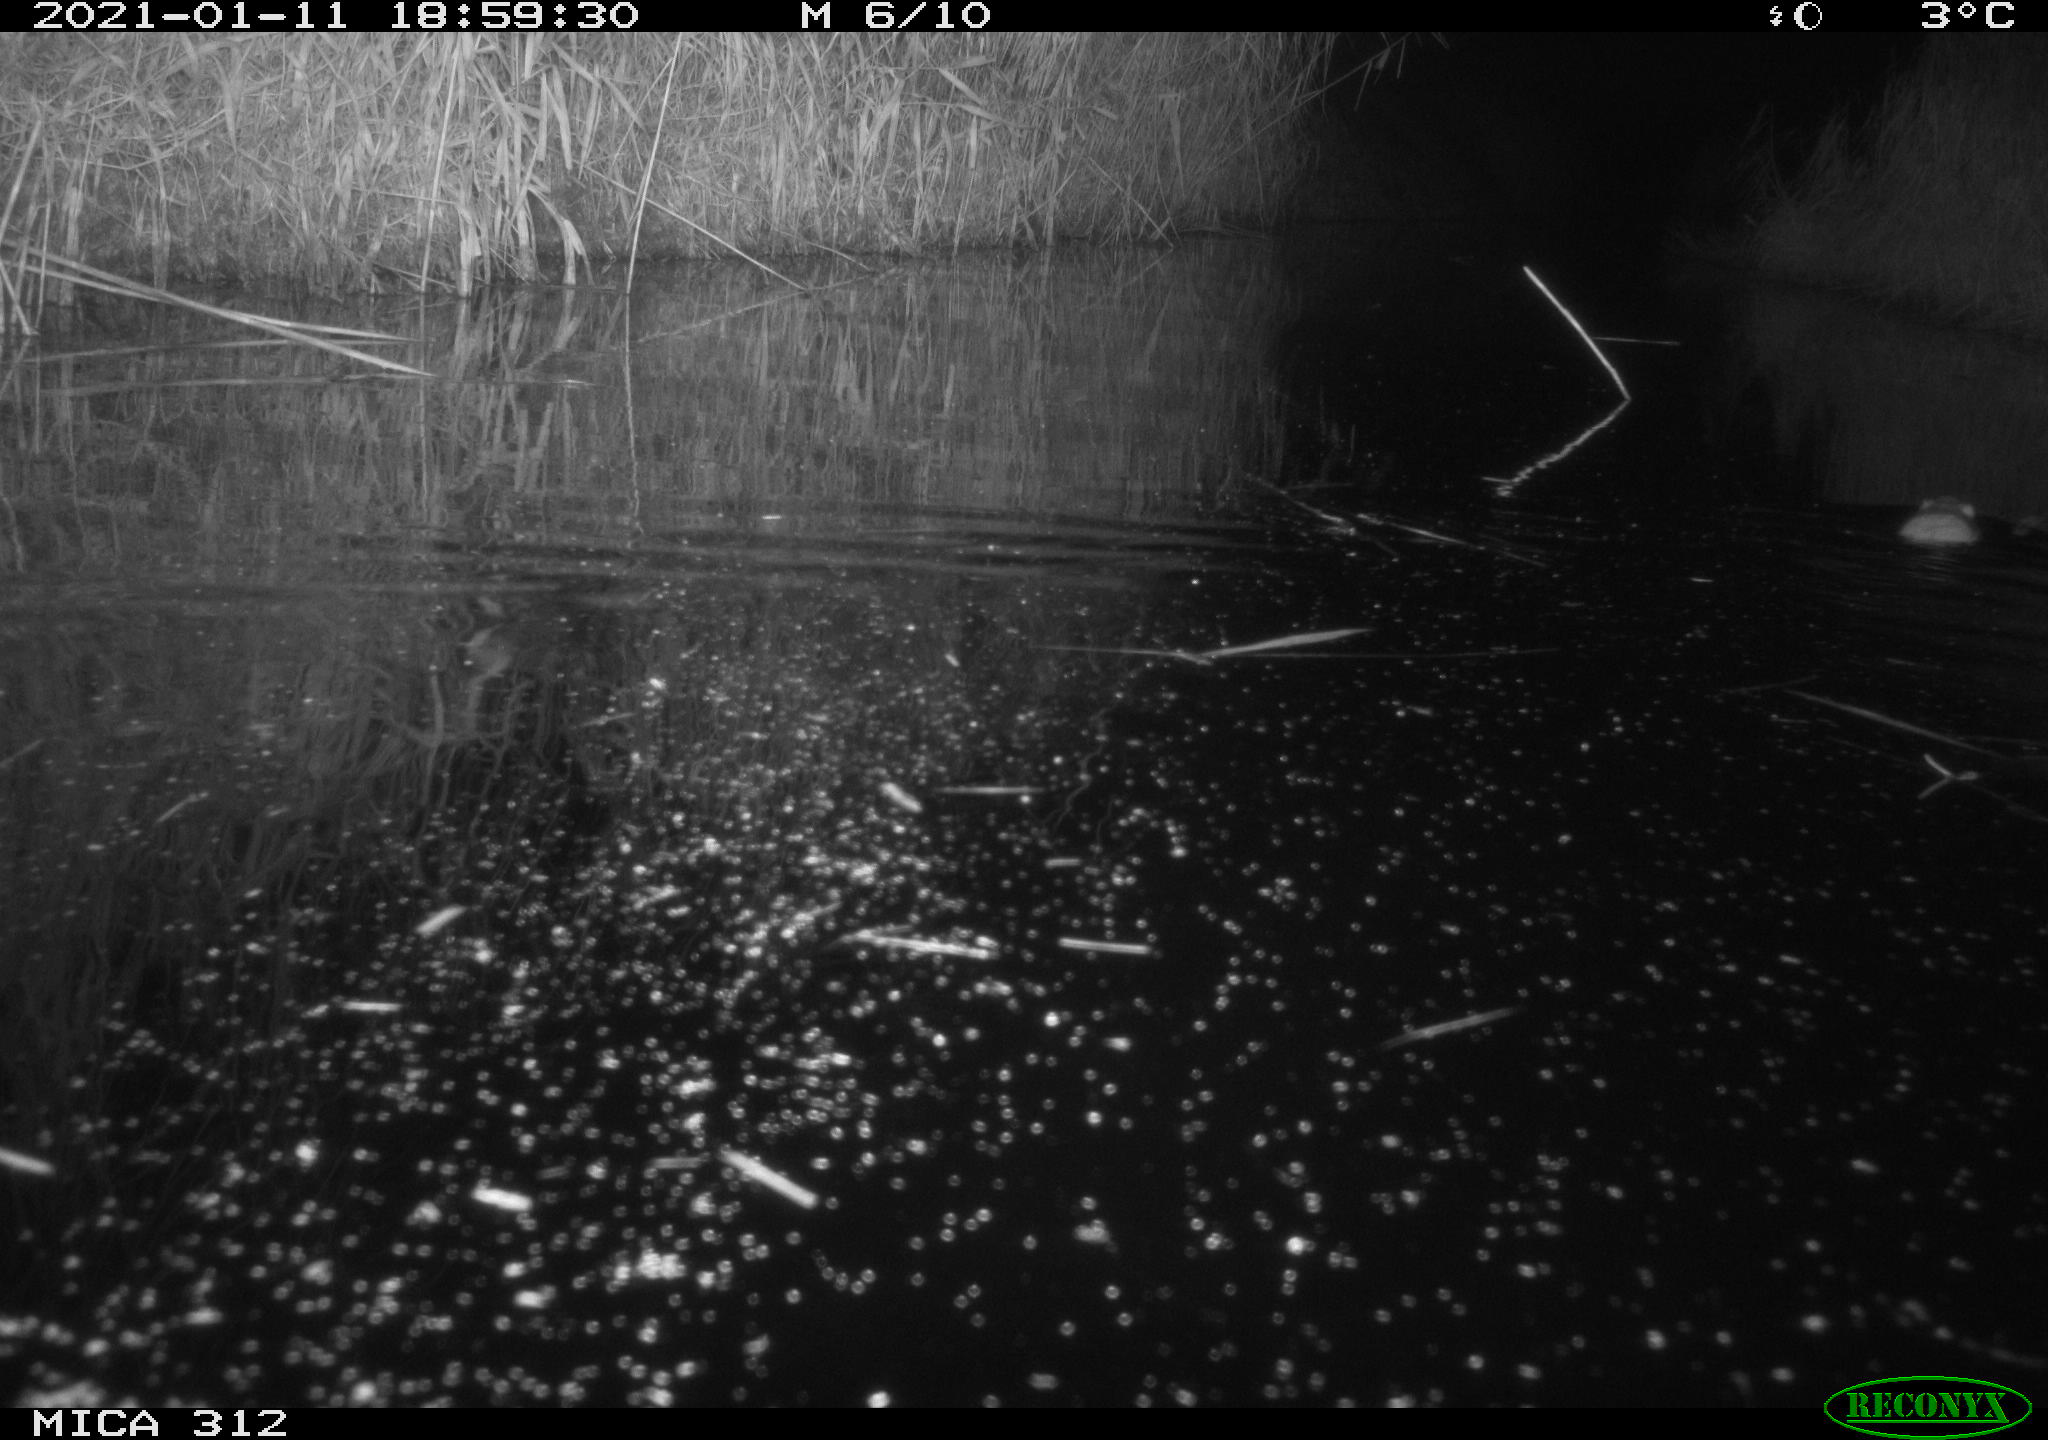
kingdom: Animalia
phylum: Chordata
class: Mammalia
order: Rodentia
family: Muridae
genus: Rattus
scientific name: Rattus norvegicus
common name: Brown rat
